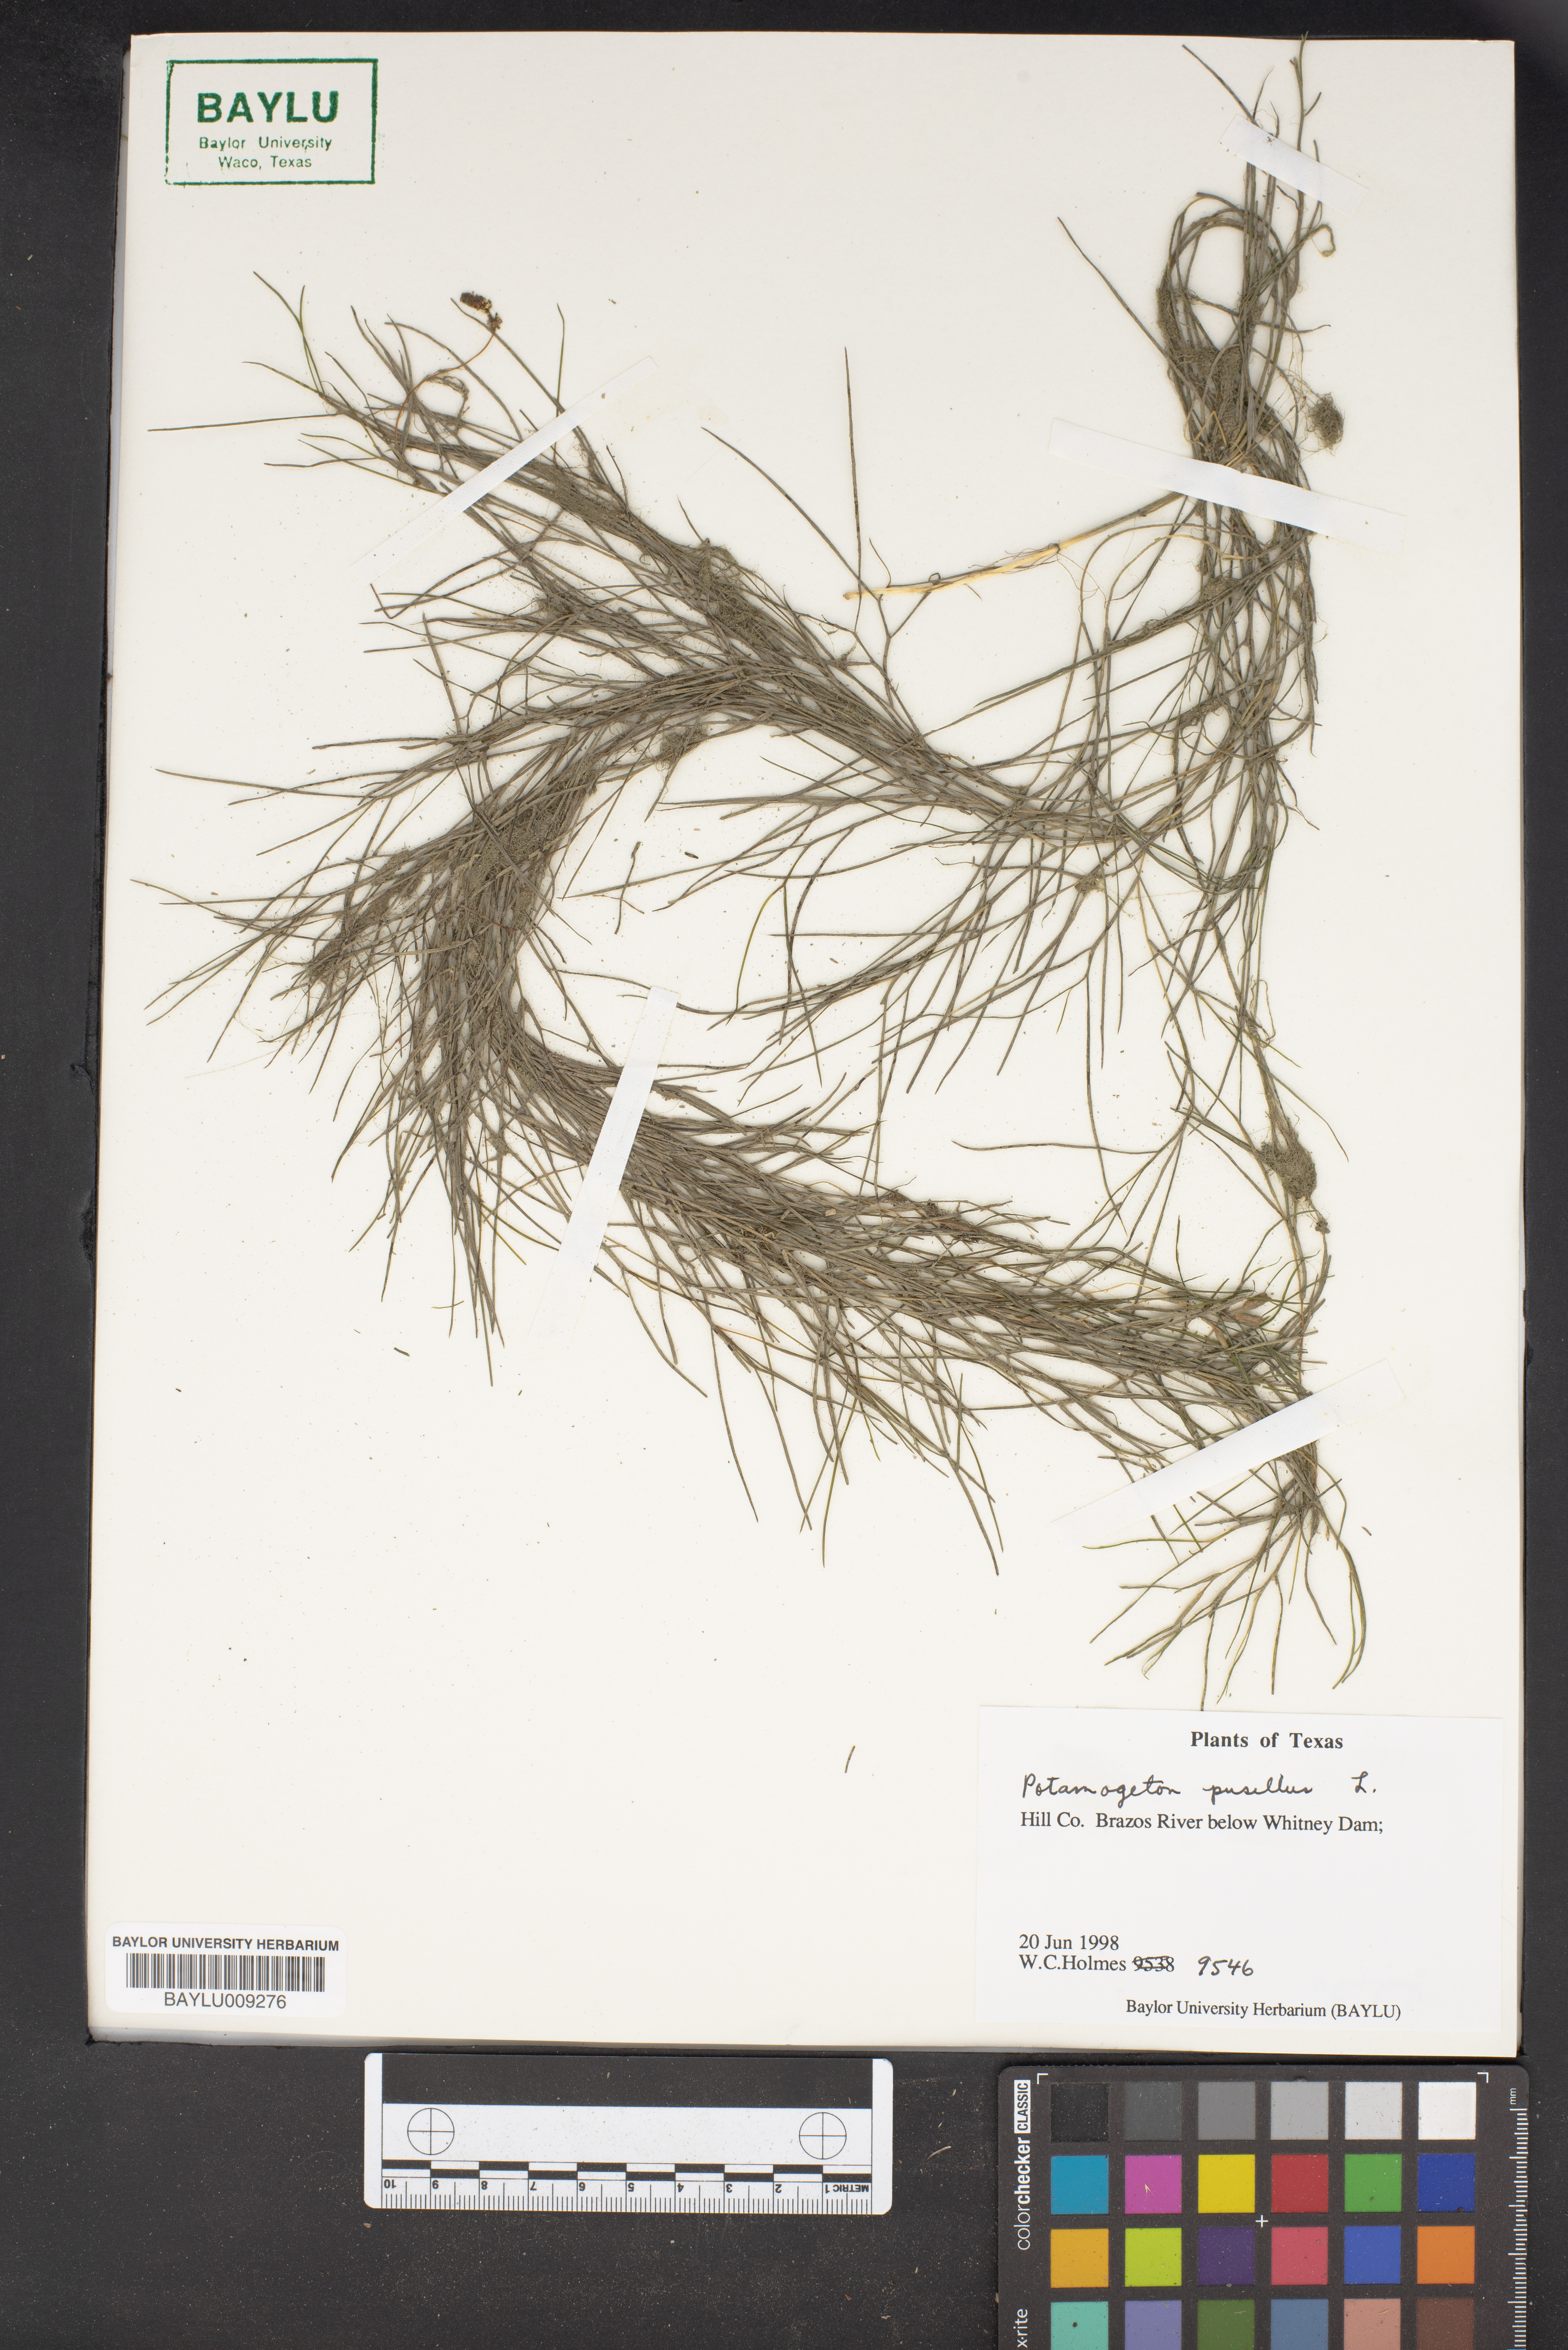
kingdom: Plantae
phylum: Tracheophyta
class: Liliopsida
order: Alismatales
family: Potamogetonaceae
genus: Potamogeton
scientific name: Potamogeton pusillus
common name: Lesser pondweed
